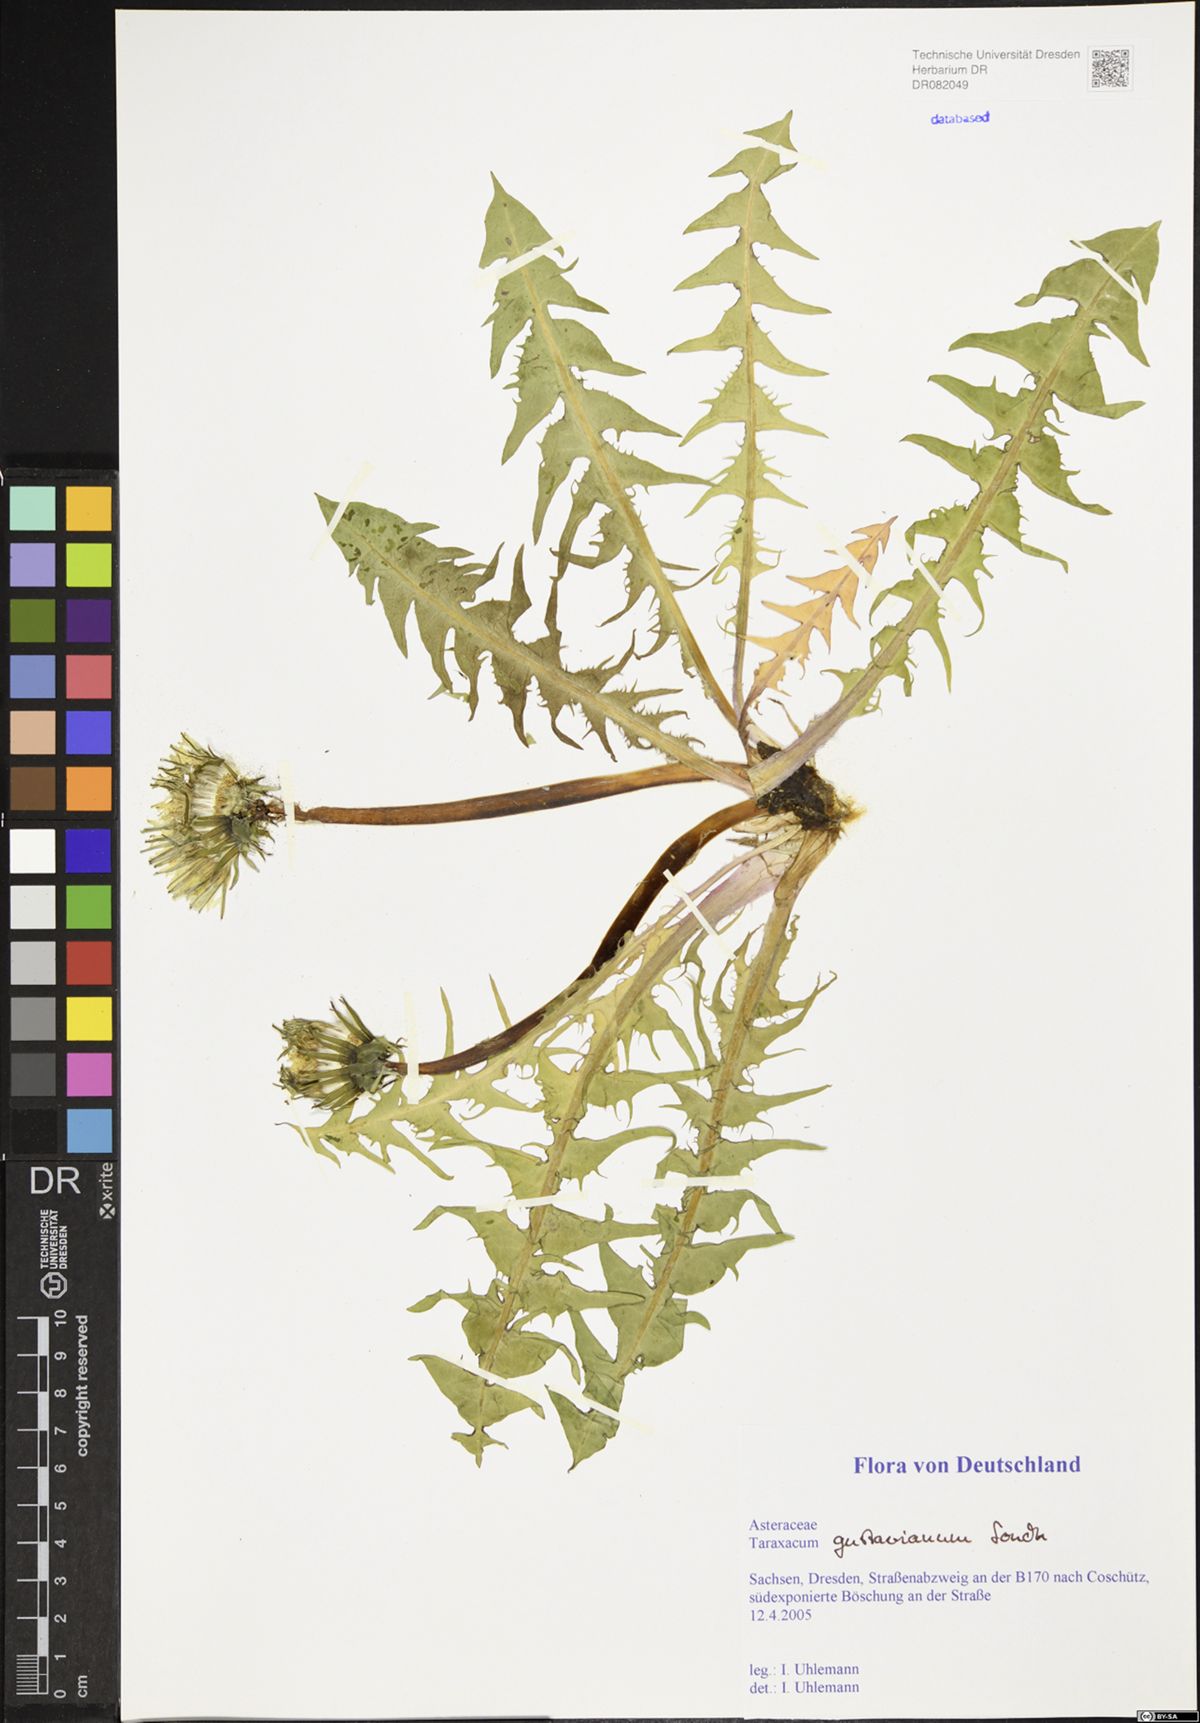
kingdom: Plantae
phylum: Tracheophyta
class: Magnoliopsida
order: Asterales
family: Asteraceae
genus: Taraxacum
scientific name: Taraxacum gustavianum
